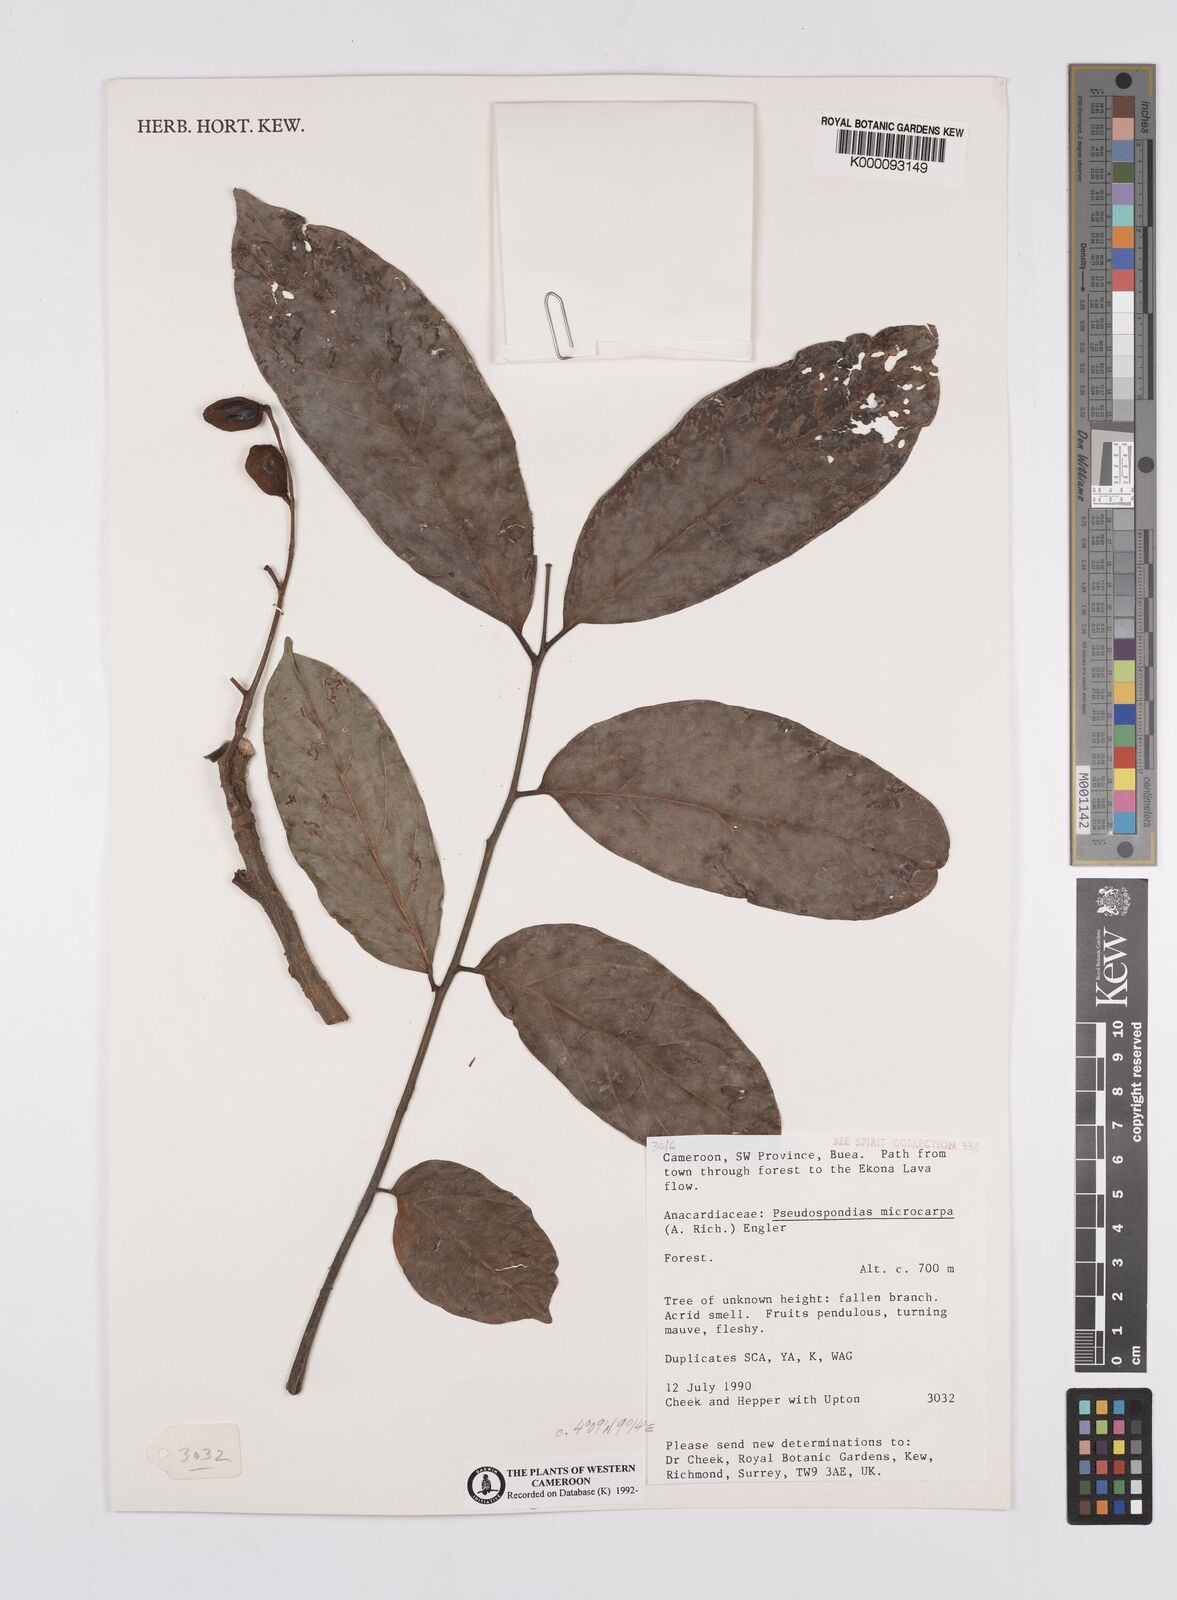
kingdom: Plantae
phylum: Tracheophyta
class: Magnoliopsida
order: Sapindales
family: Anacardiaceae
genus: Pseudospondias
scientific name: Pseudospondias microcarpa
